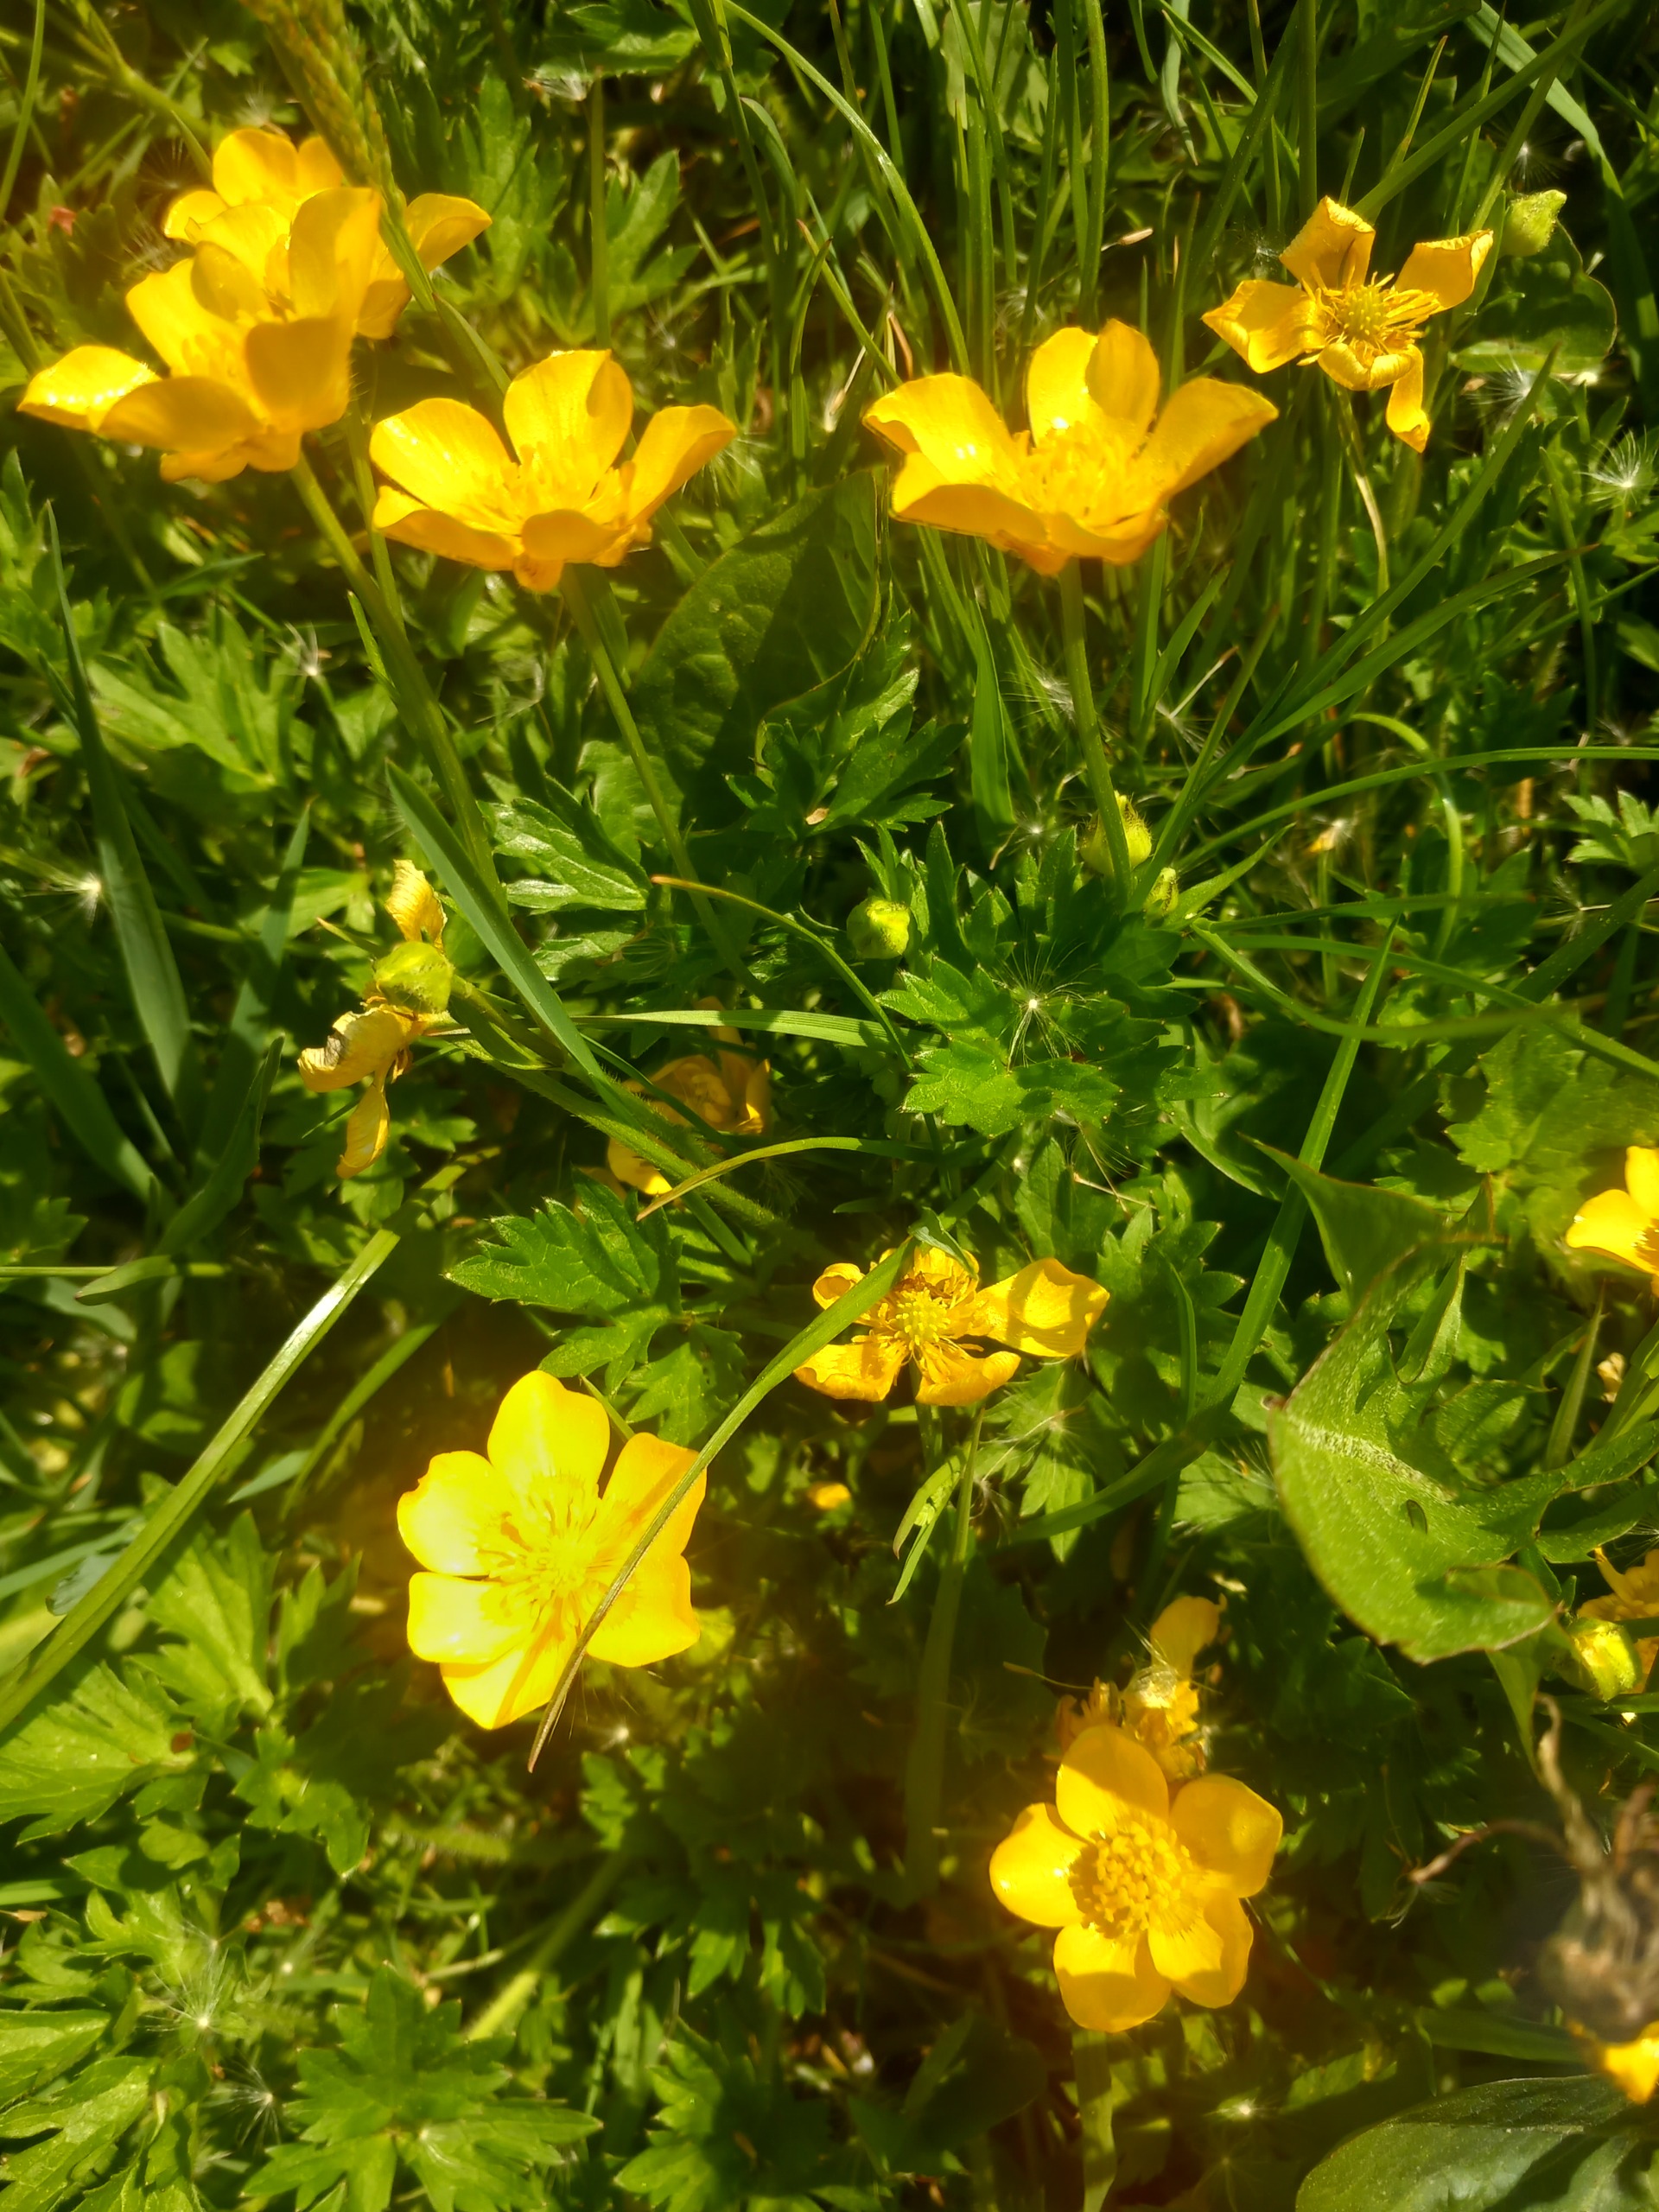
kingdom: Plantae
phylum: Tracheophyta
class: Magnoliopsida
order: Ranunculales
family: Ranunculaceae
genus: Ranunculus
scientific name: Ranunculus repens
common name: Lav ranunkel
